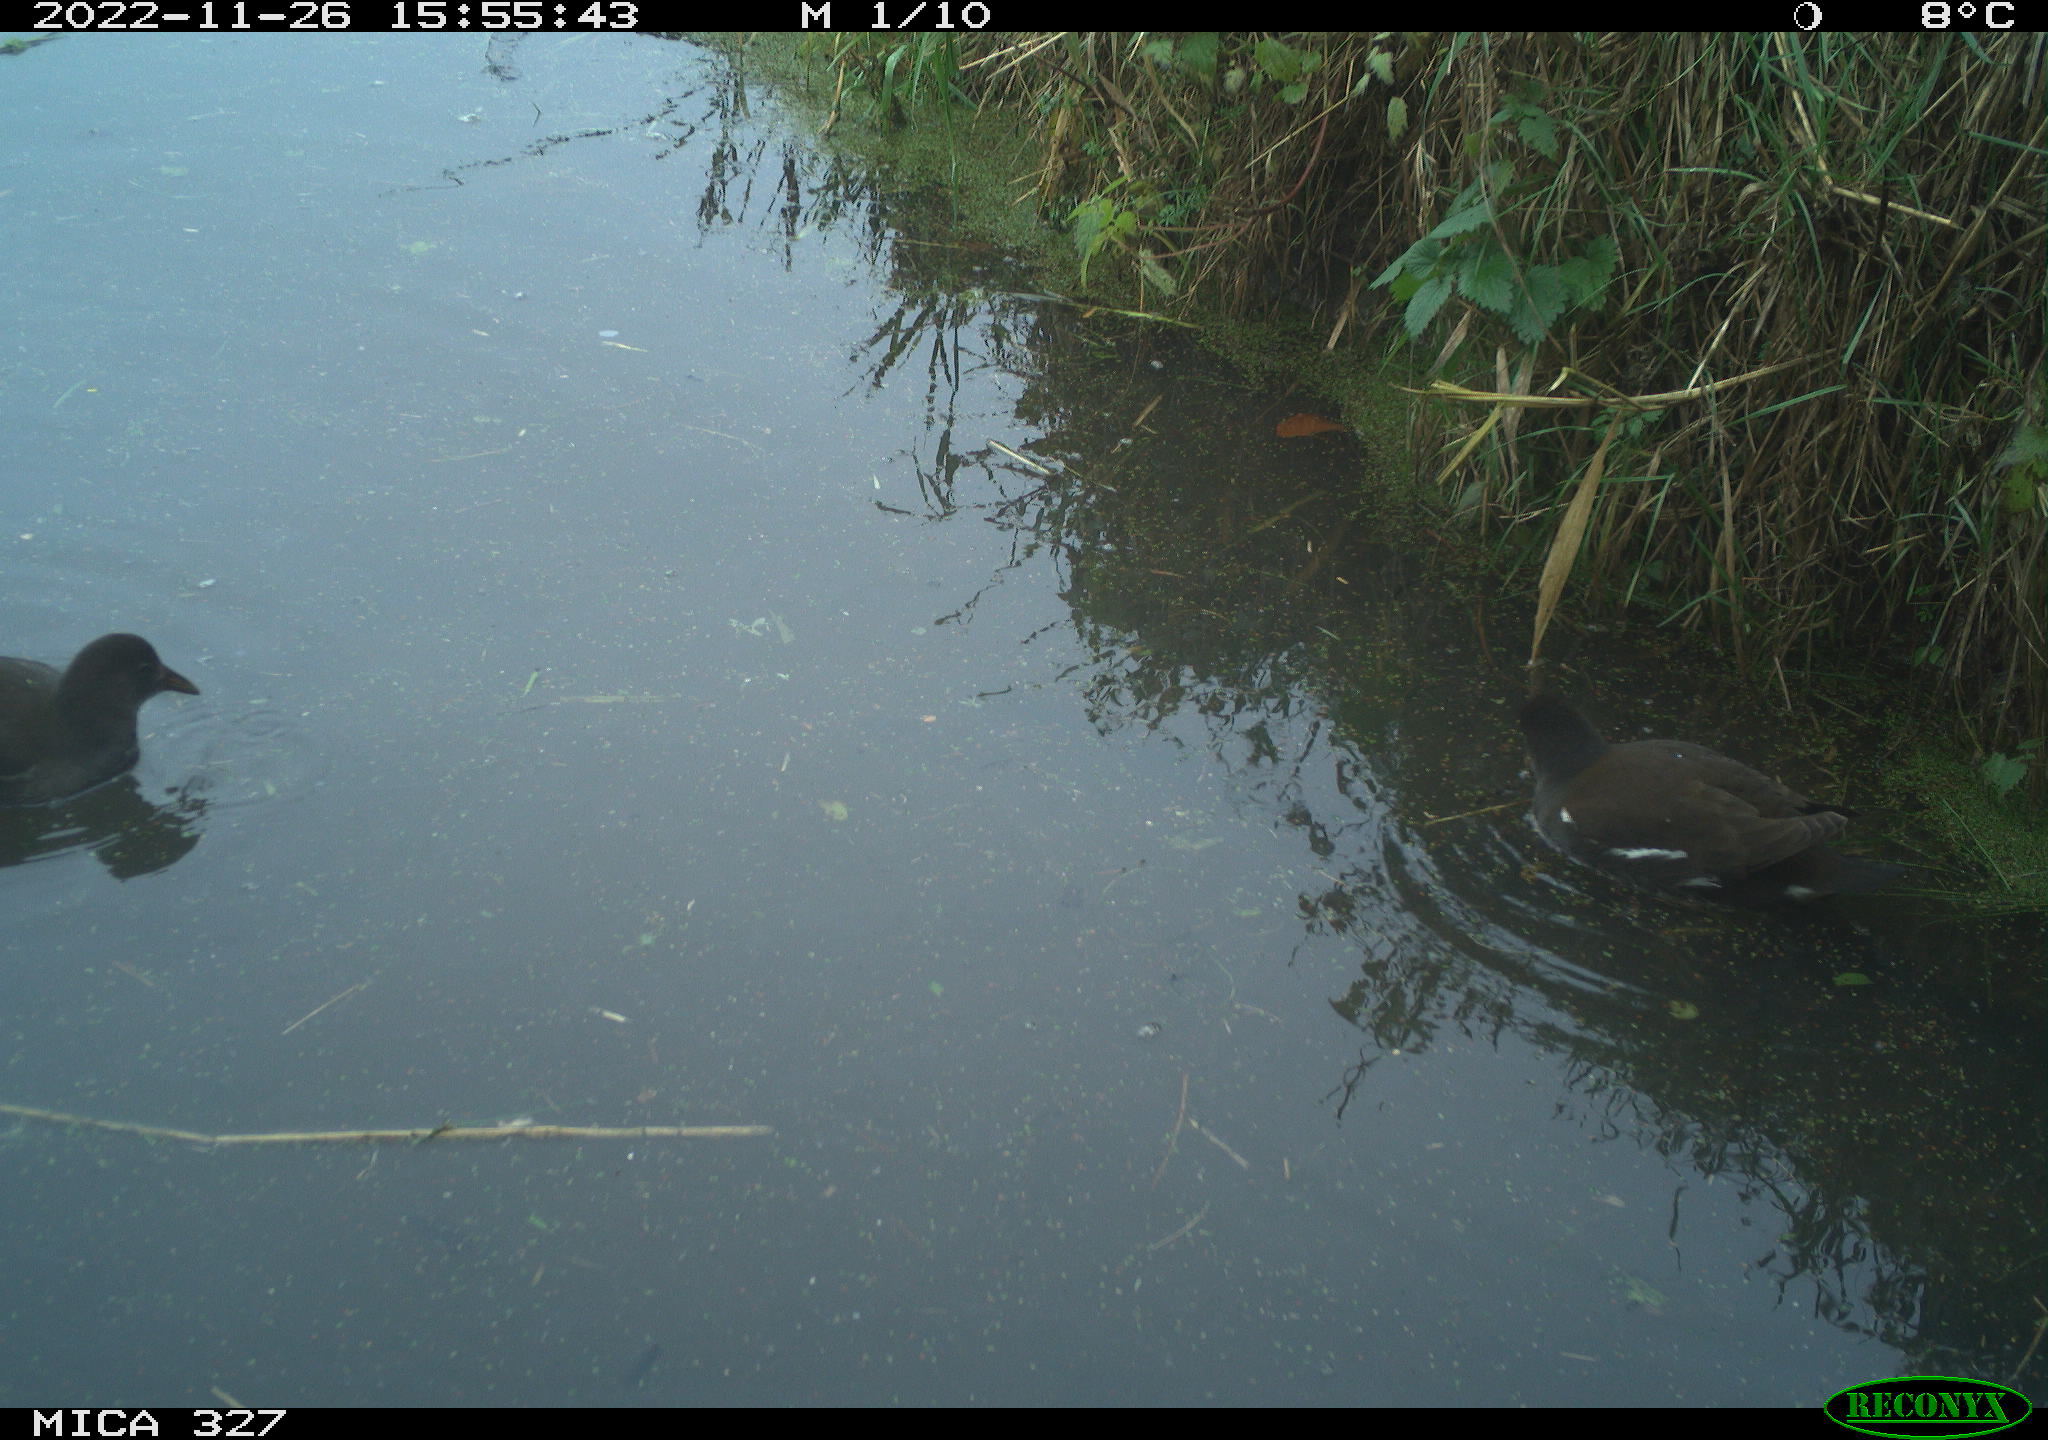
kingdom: Animalia
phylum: Chordata
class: Aves
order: Gruiformes
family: Rallidae
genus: Gallinula
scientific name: Gallinula chloropus
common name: Common moorhen
